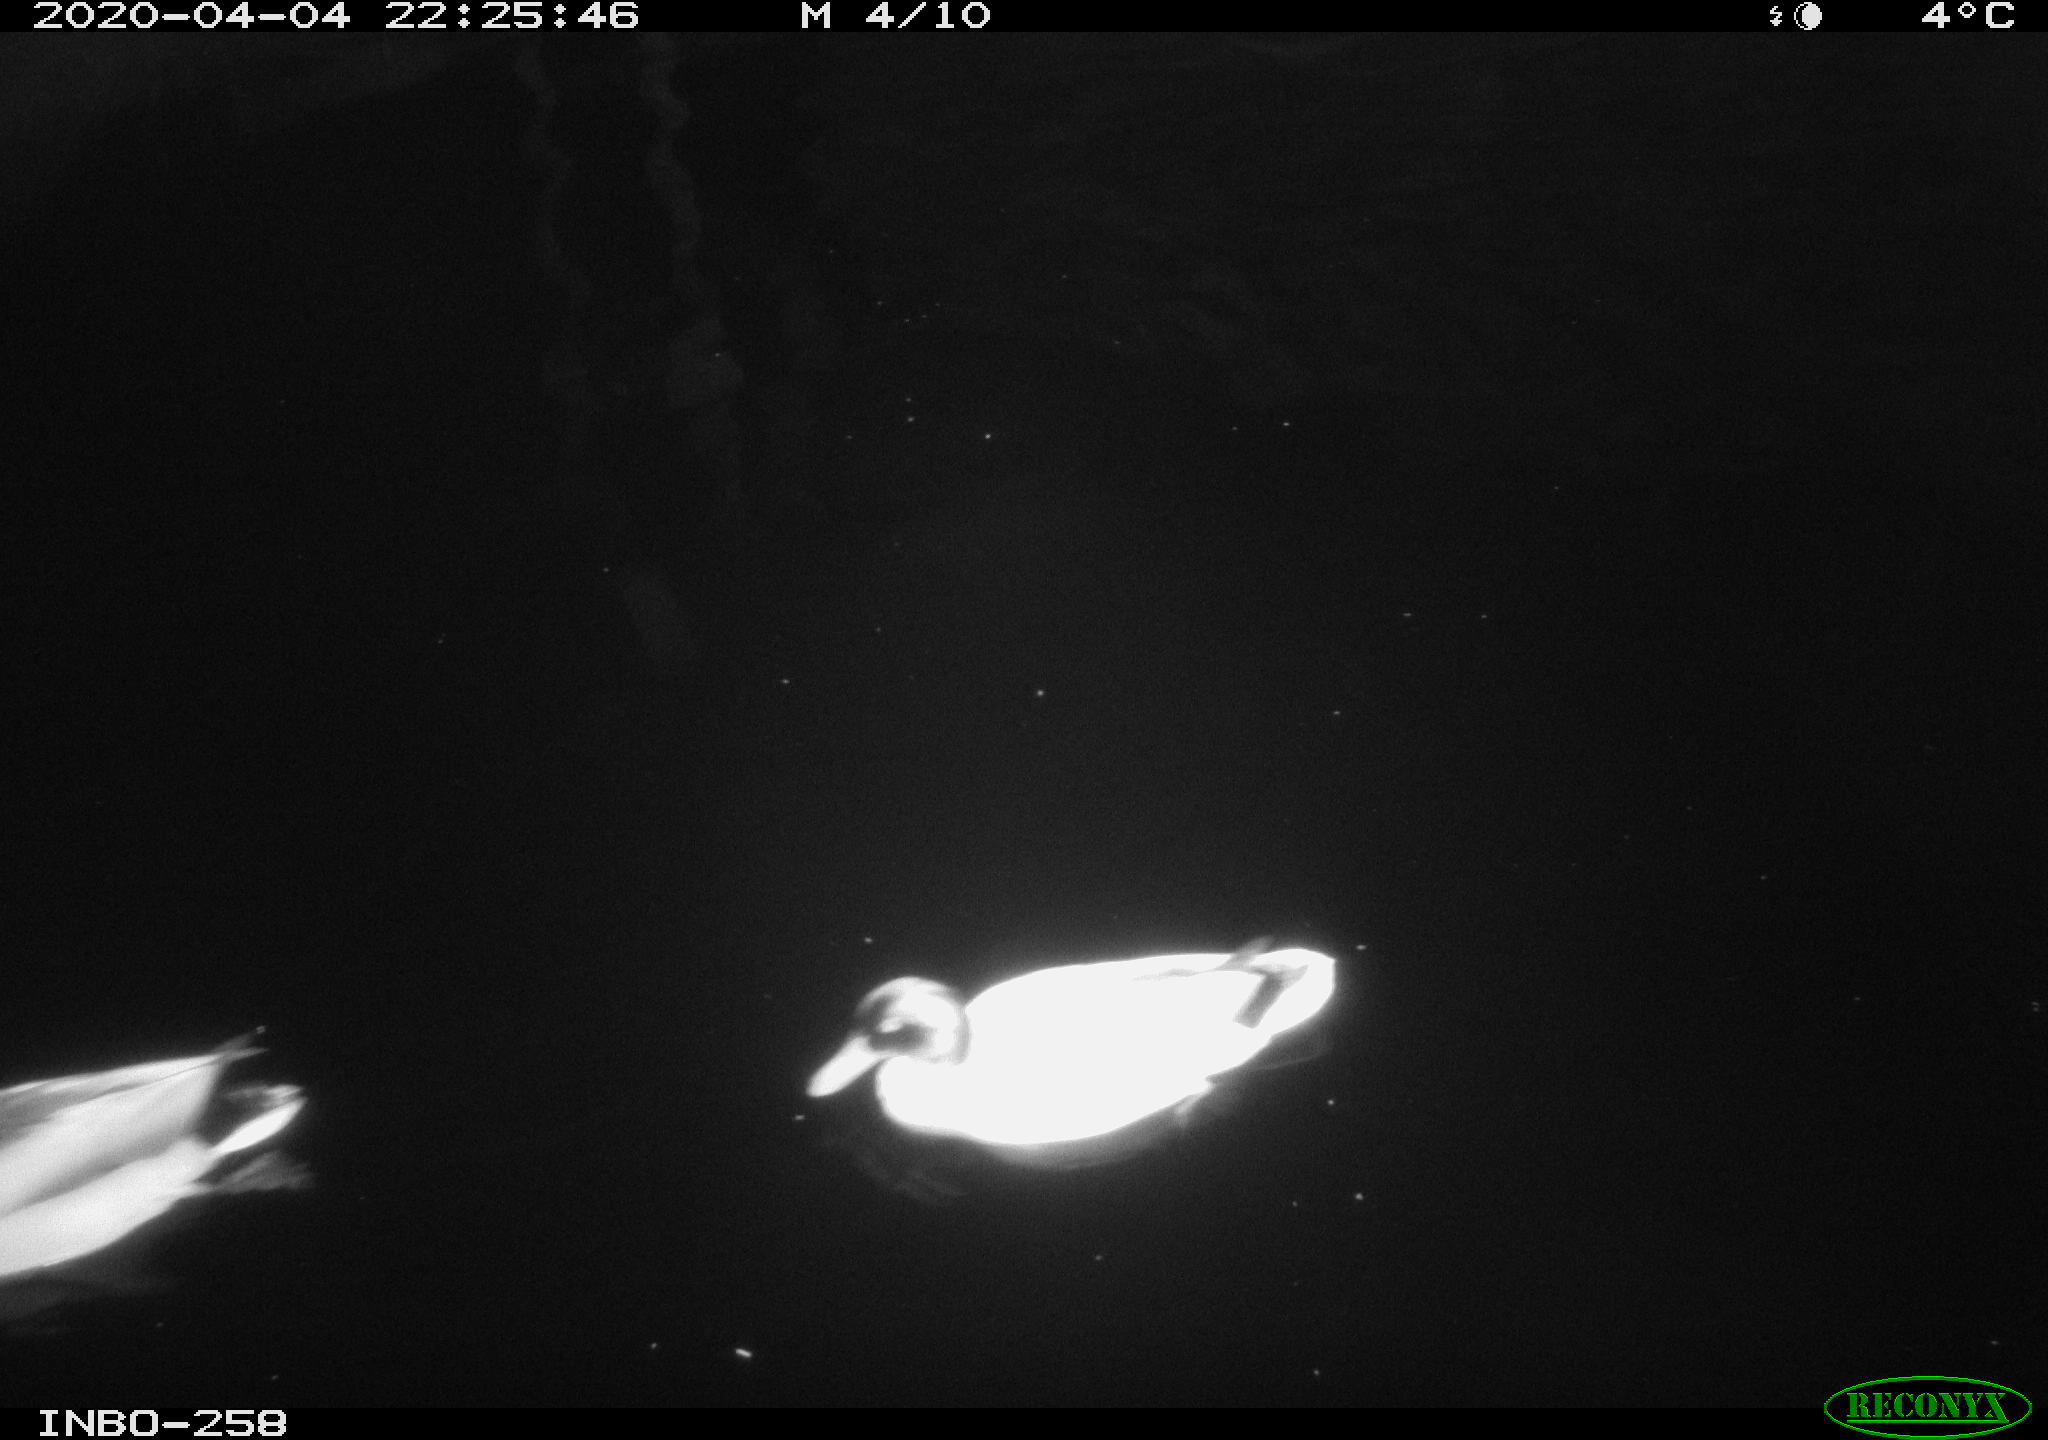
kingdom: Animalia
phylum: Chordata
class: Aves
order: Anseriformes
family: Anatidae
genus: Anas
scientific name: Anas platyrhynchos
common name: Mallard
